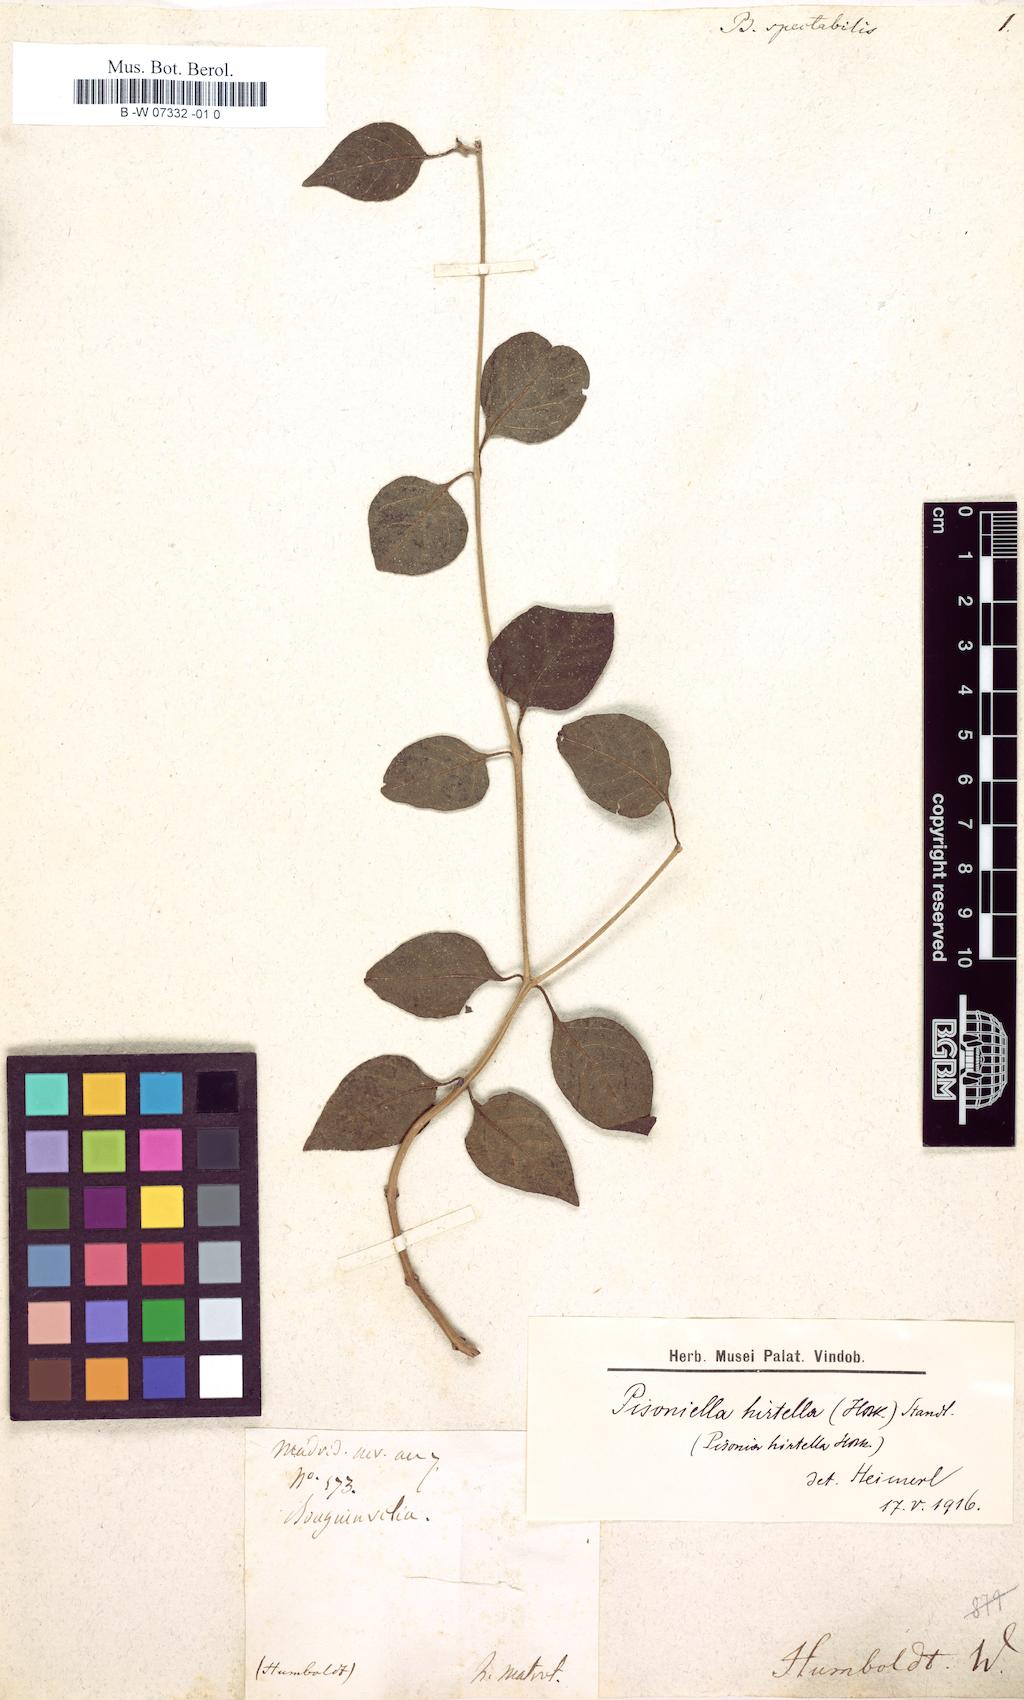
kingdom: Plantae
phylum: Tracheophyta
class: Magnoliopsida
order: Caryophyllales
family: Nyctaginaceae
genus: Bougainvillea
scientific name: Bougainvillea spectabilis
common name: Great bougainvillea
